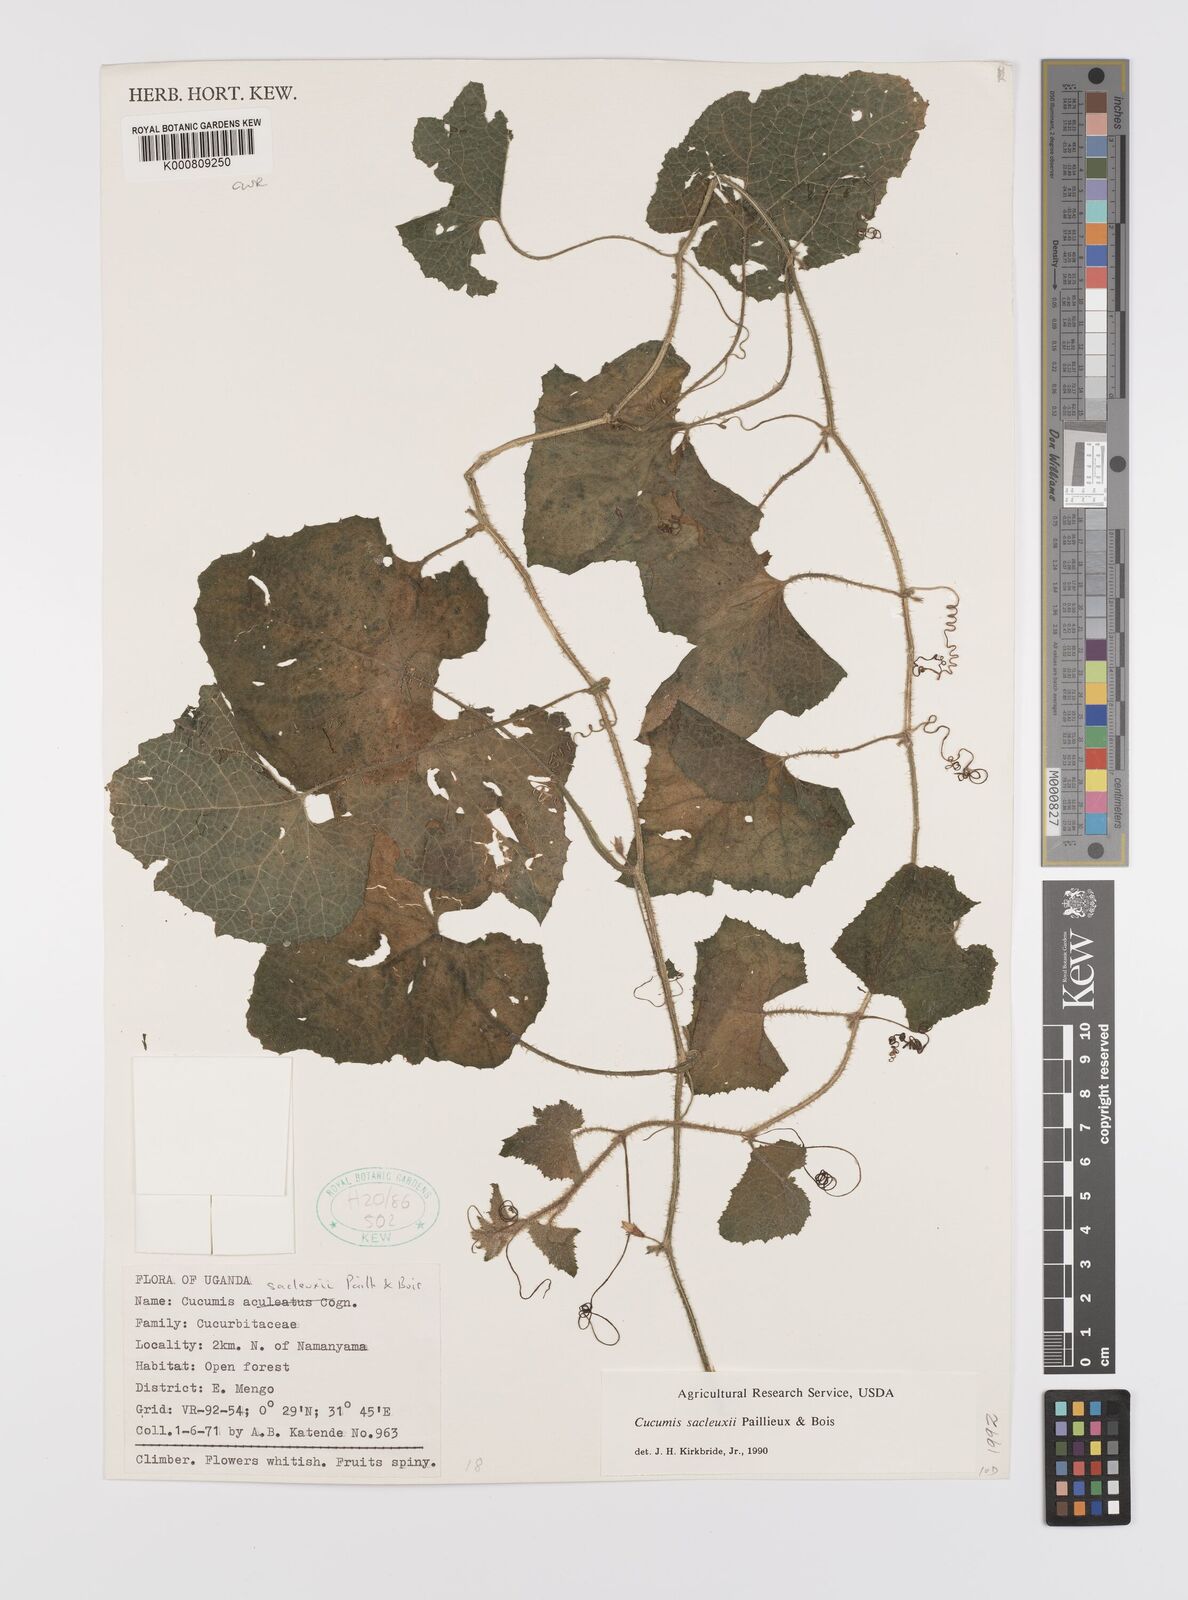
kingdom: Plantae
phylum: Tracheophyta
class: Magnoliopsida
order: Cucurbitales
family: Cucurbitaceae
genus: Cucumis
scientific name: Cucumis sacleuxii
